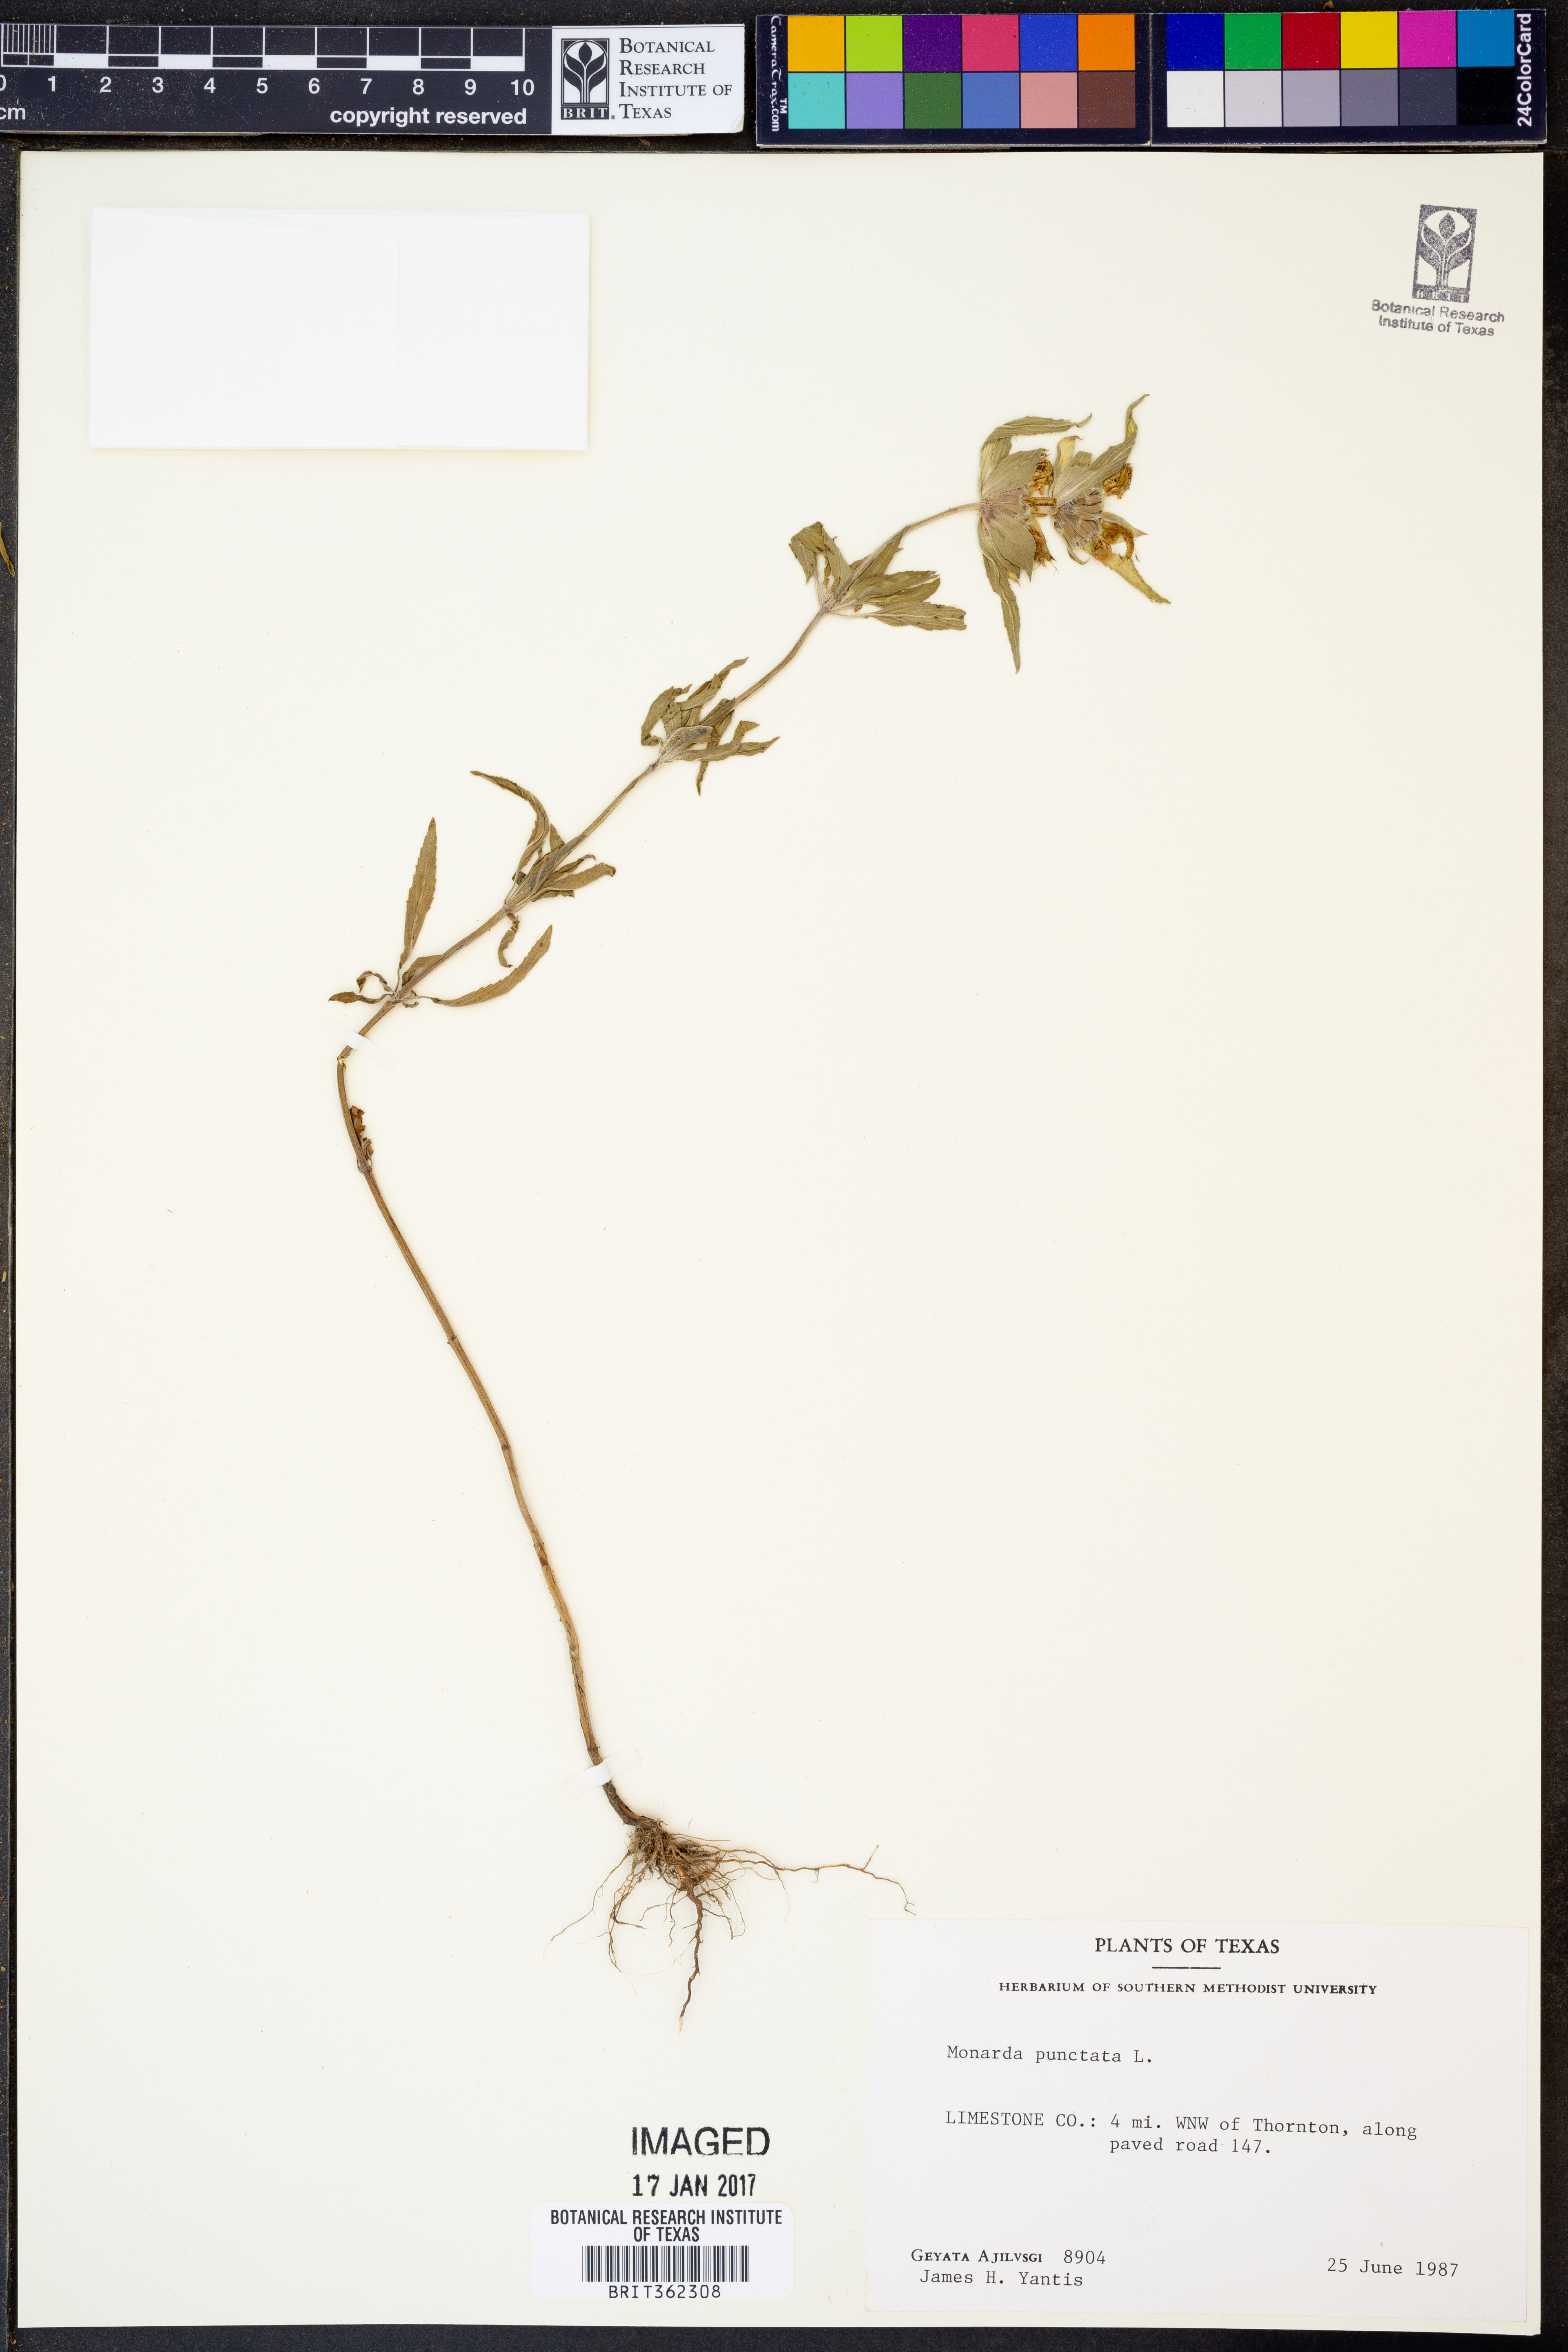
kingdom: Plantae
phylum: Tracheophyta
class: Magnoliopsida
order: Lamiales
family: Lamiaceae
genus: Monarda
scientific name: Monarda punctata
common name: Dotted monarda
